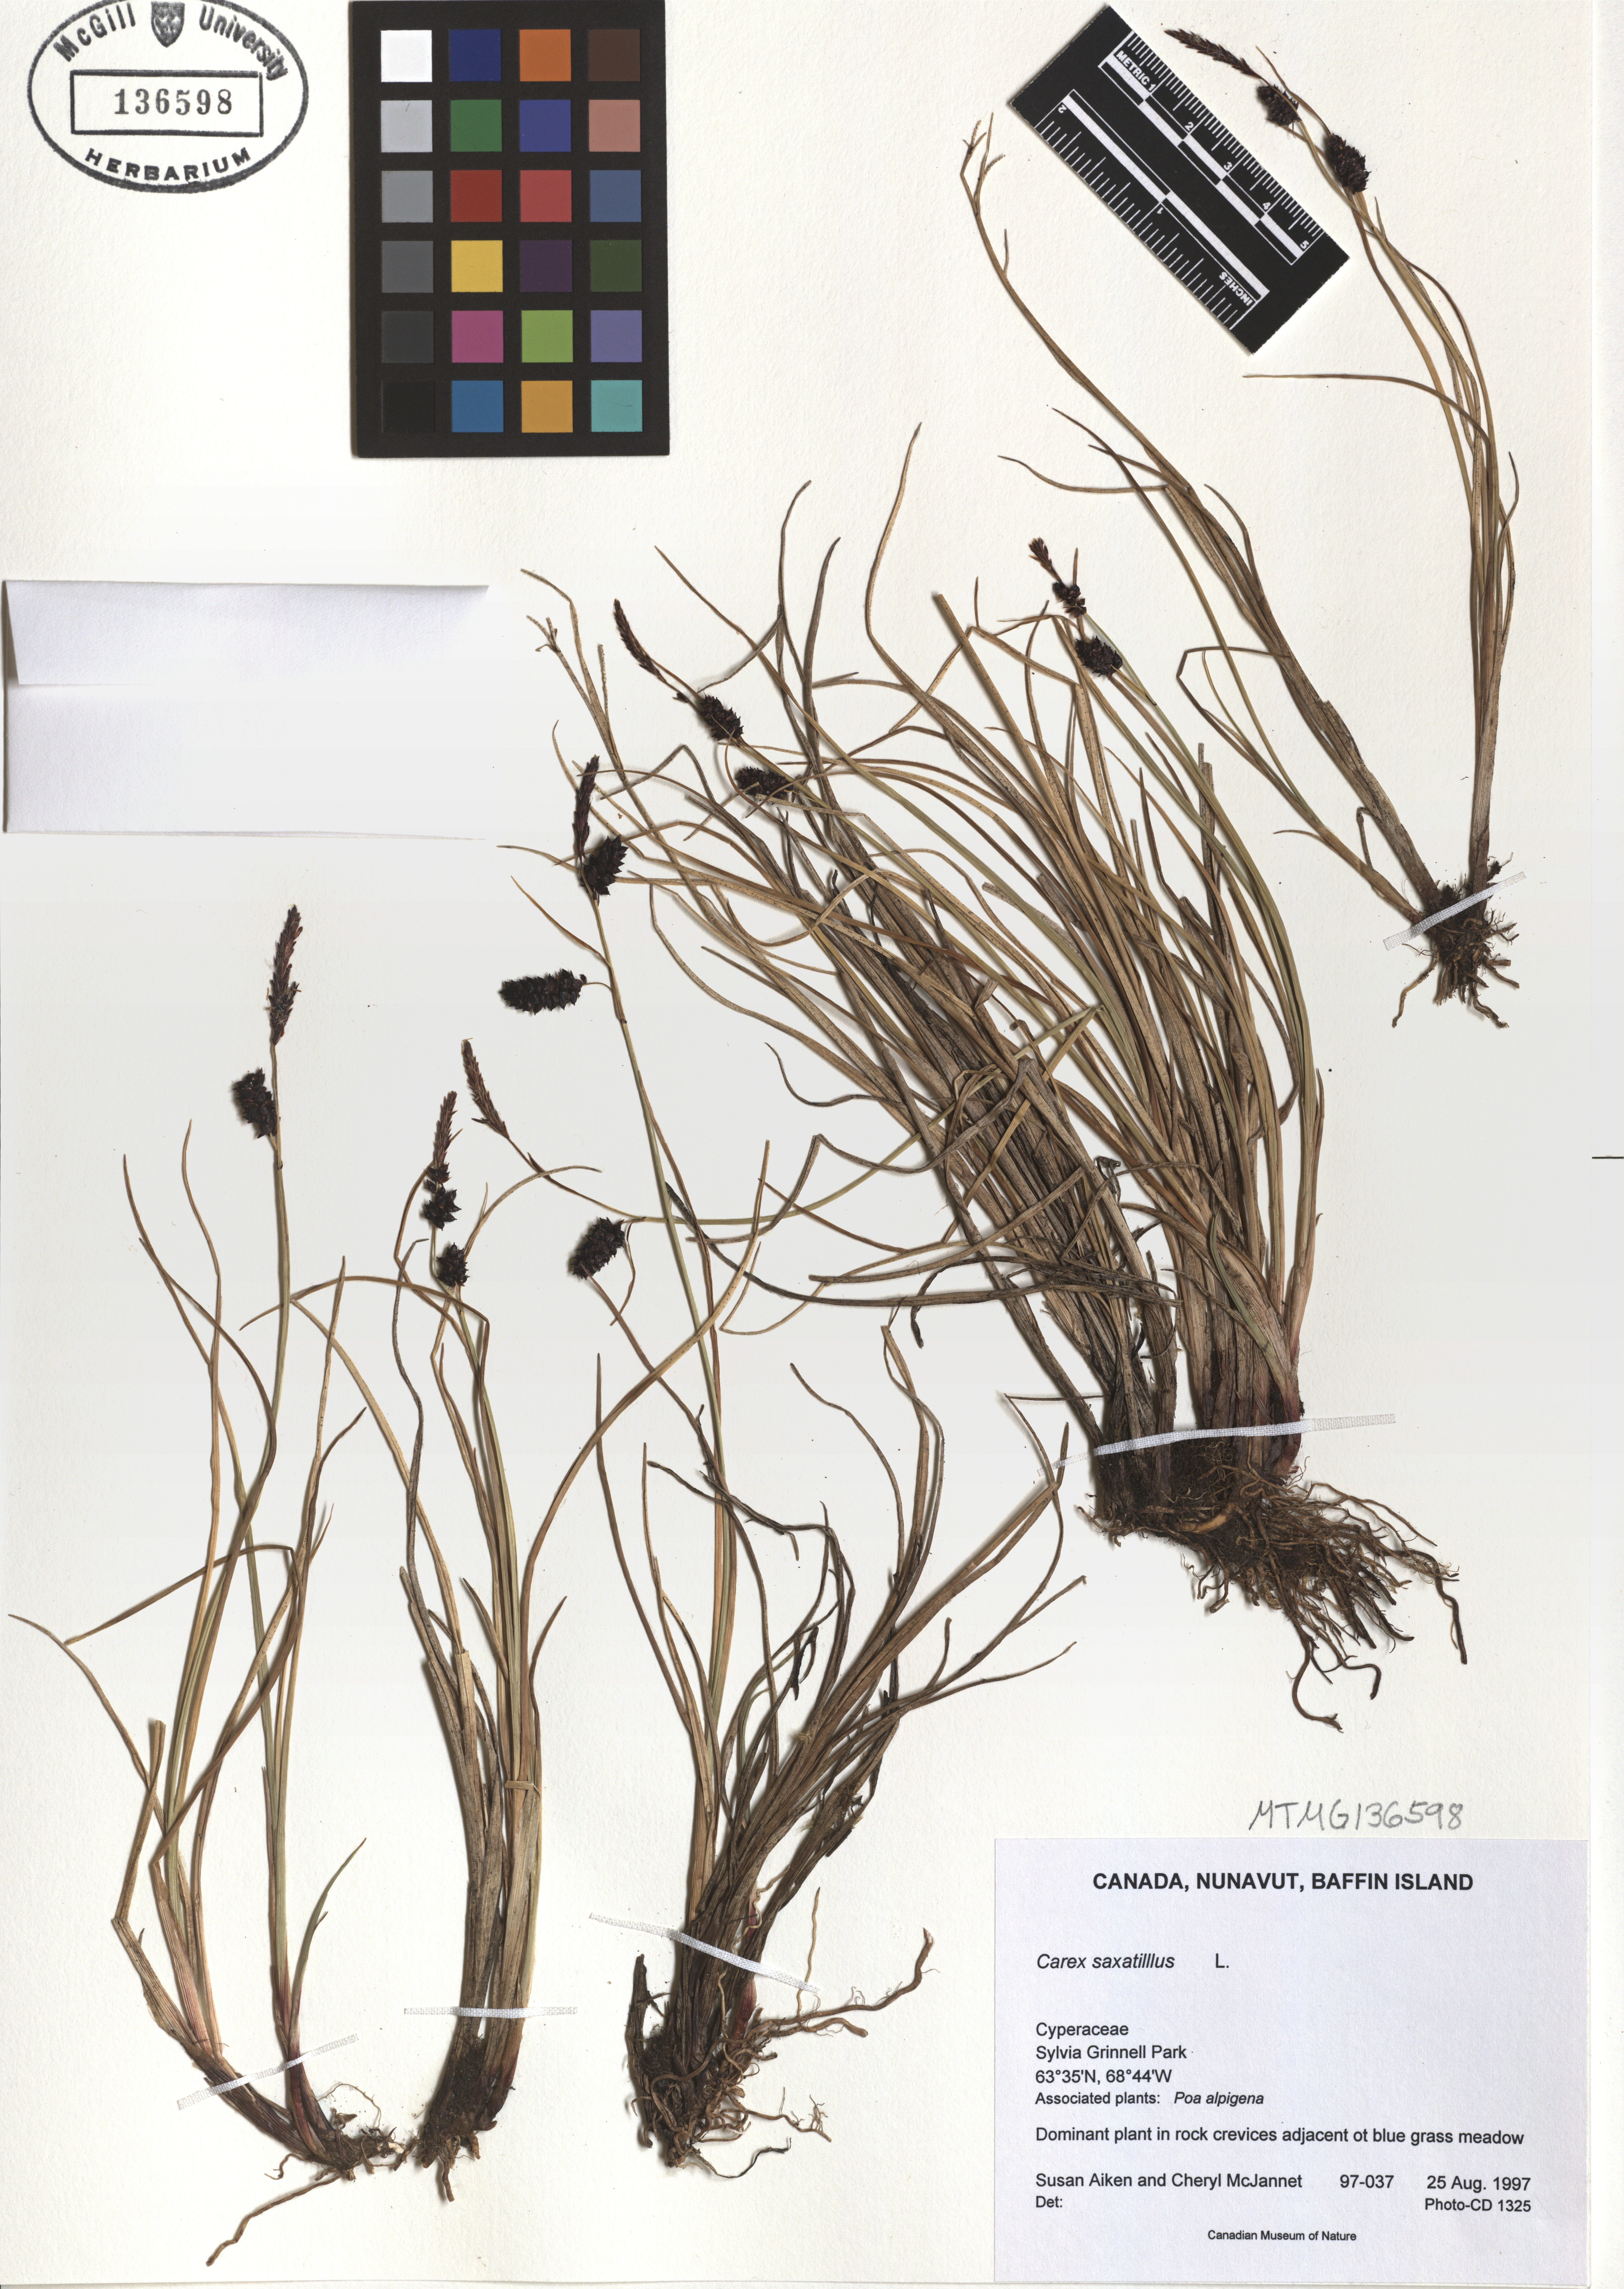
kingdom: Plantae
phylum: Tracheophyta
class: Liliopsida
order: Poales
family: Cyperaceae
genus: Carex
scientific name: Carex saxatilis
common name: Russet sedge
